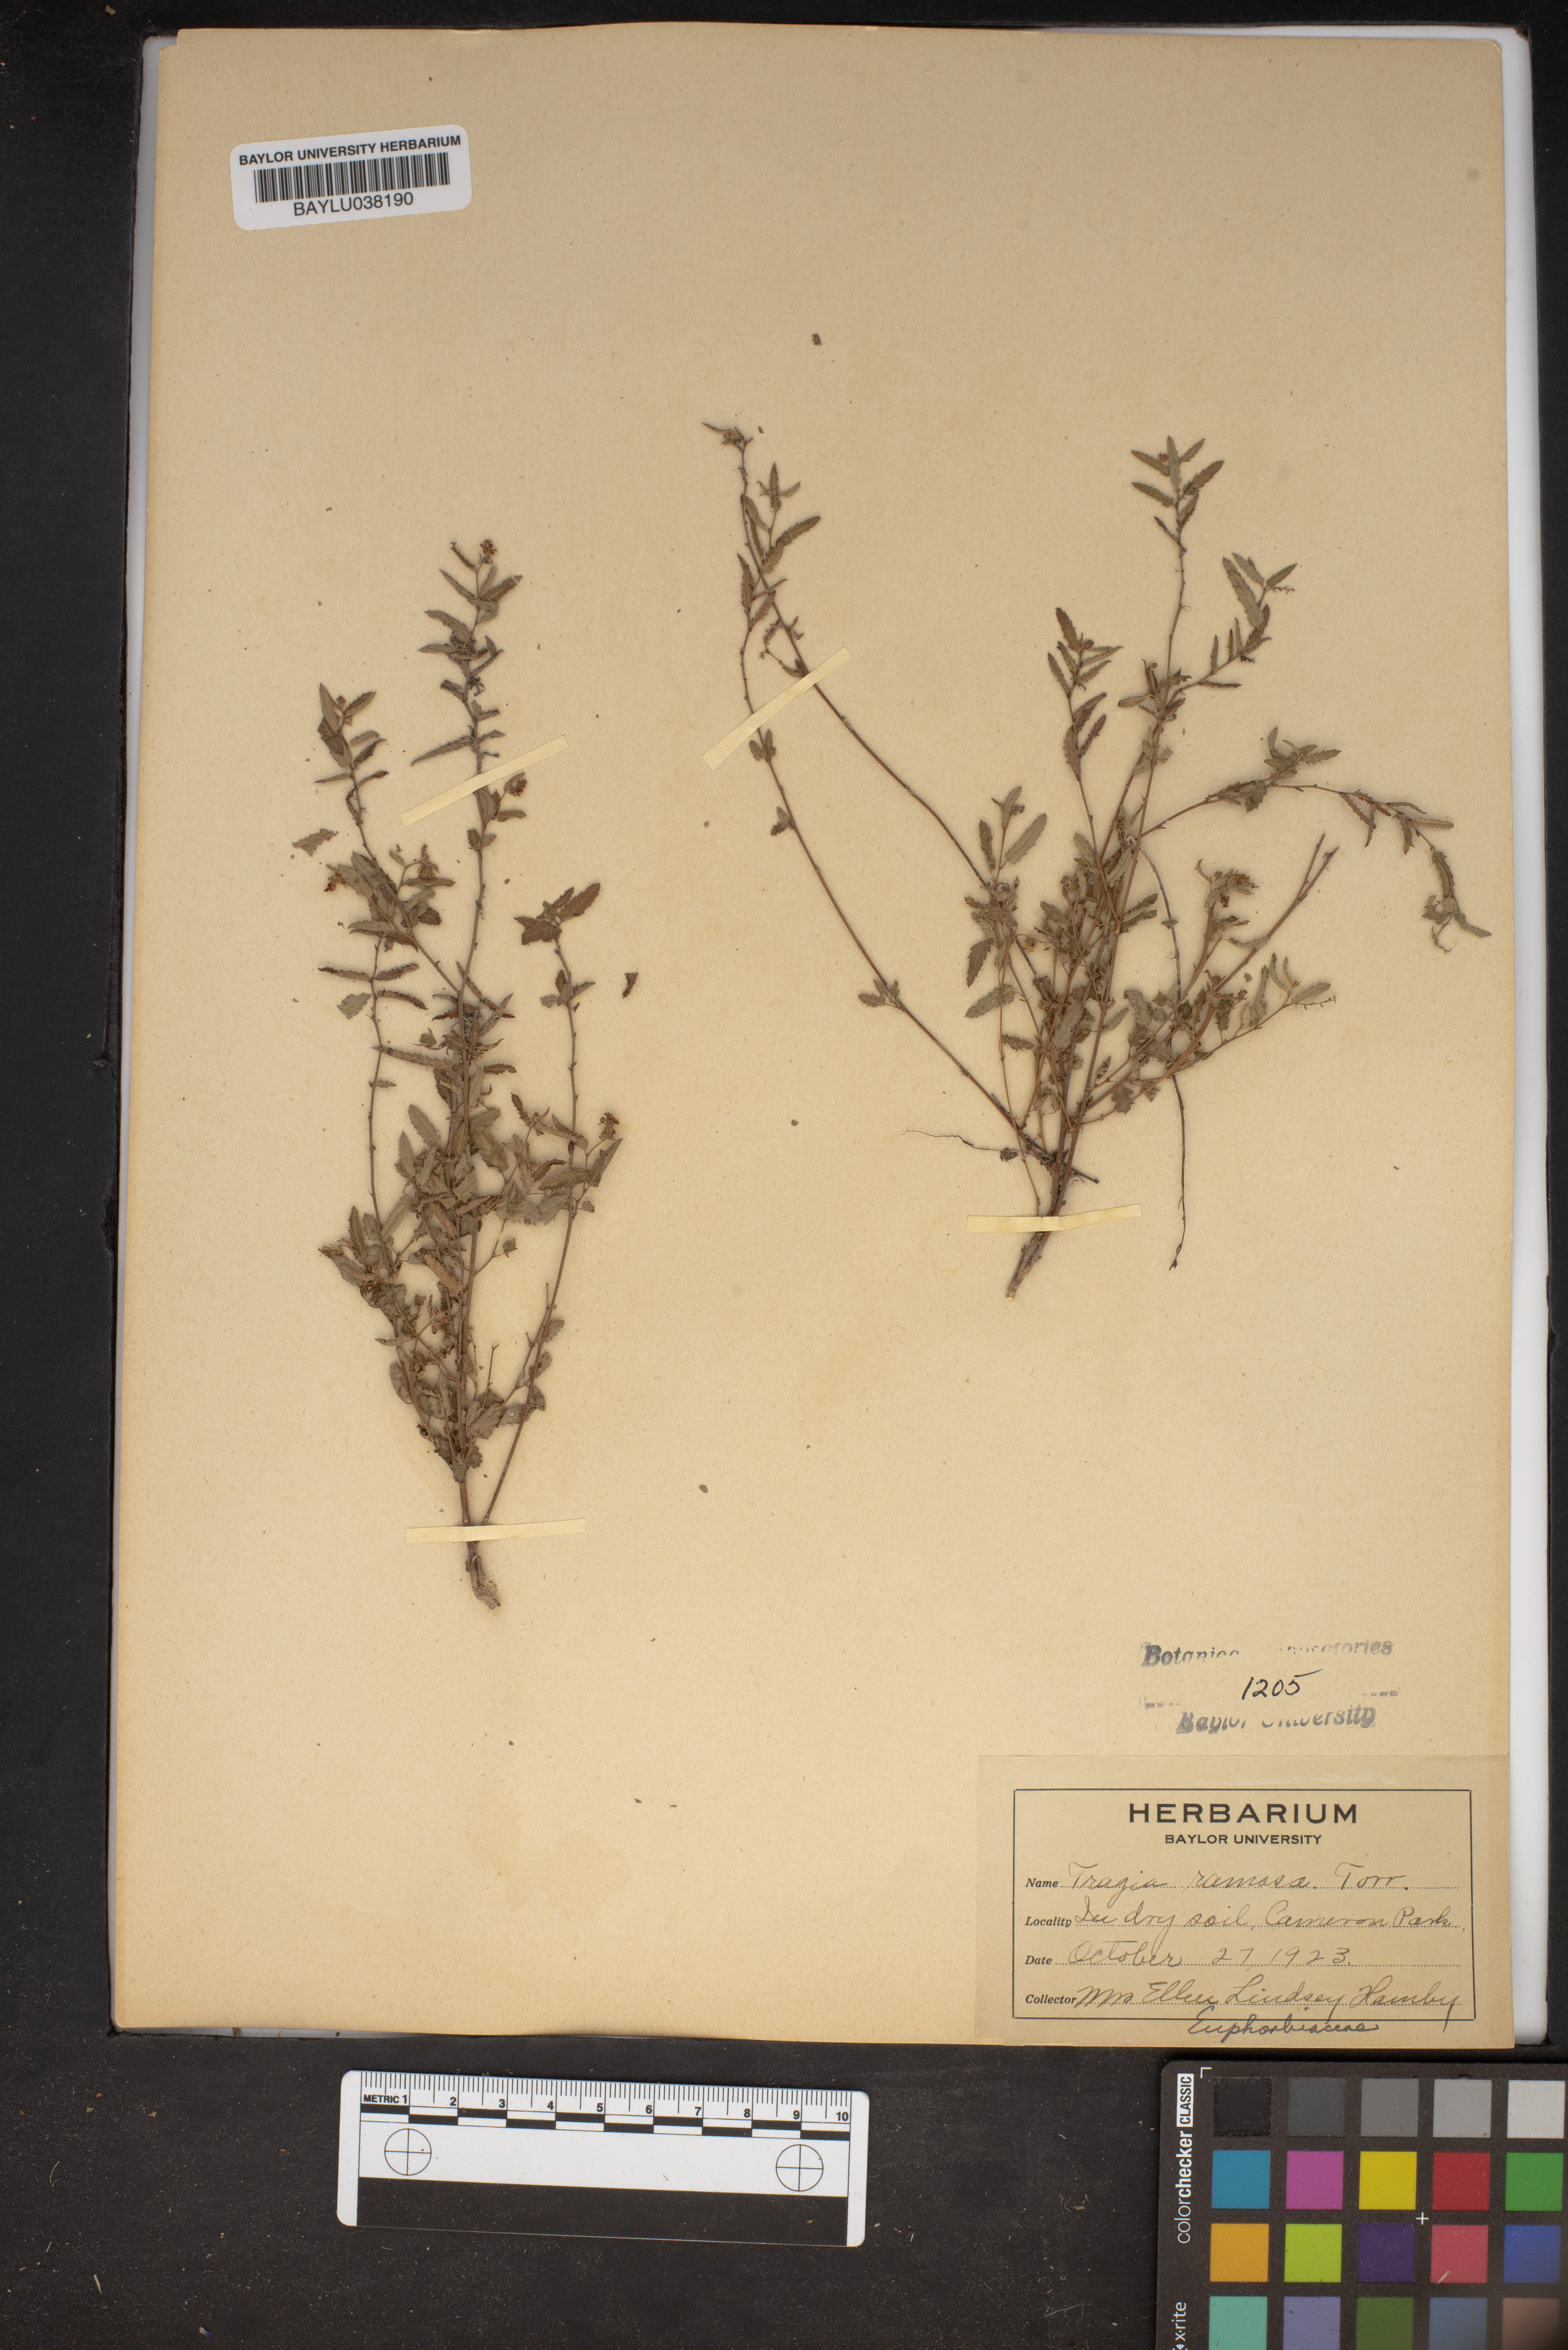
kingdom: Plantae
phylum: Tracheophyta
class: Magnoliopsida
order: Malpighiales
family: Euphorbiaceae
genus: Tragia
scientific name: Tragia ramosa
